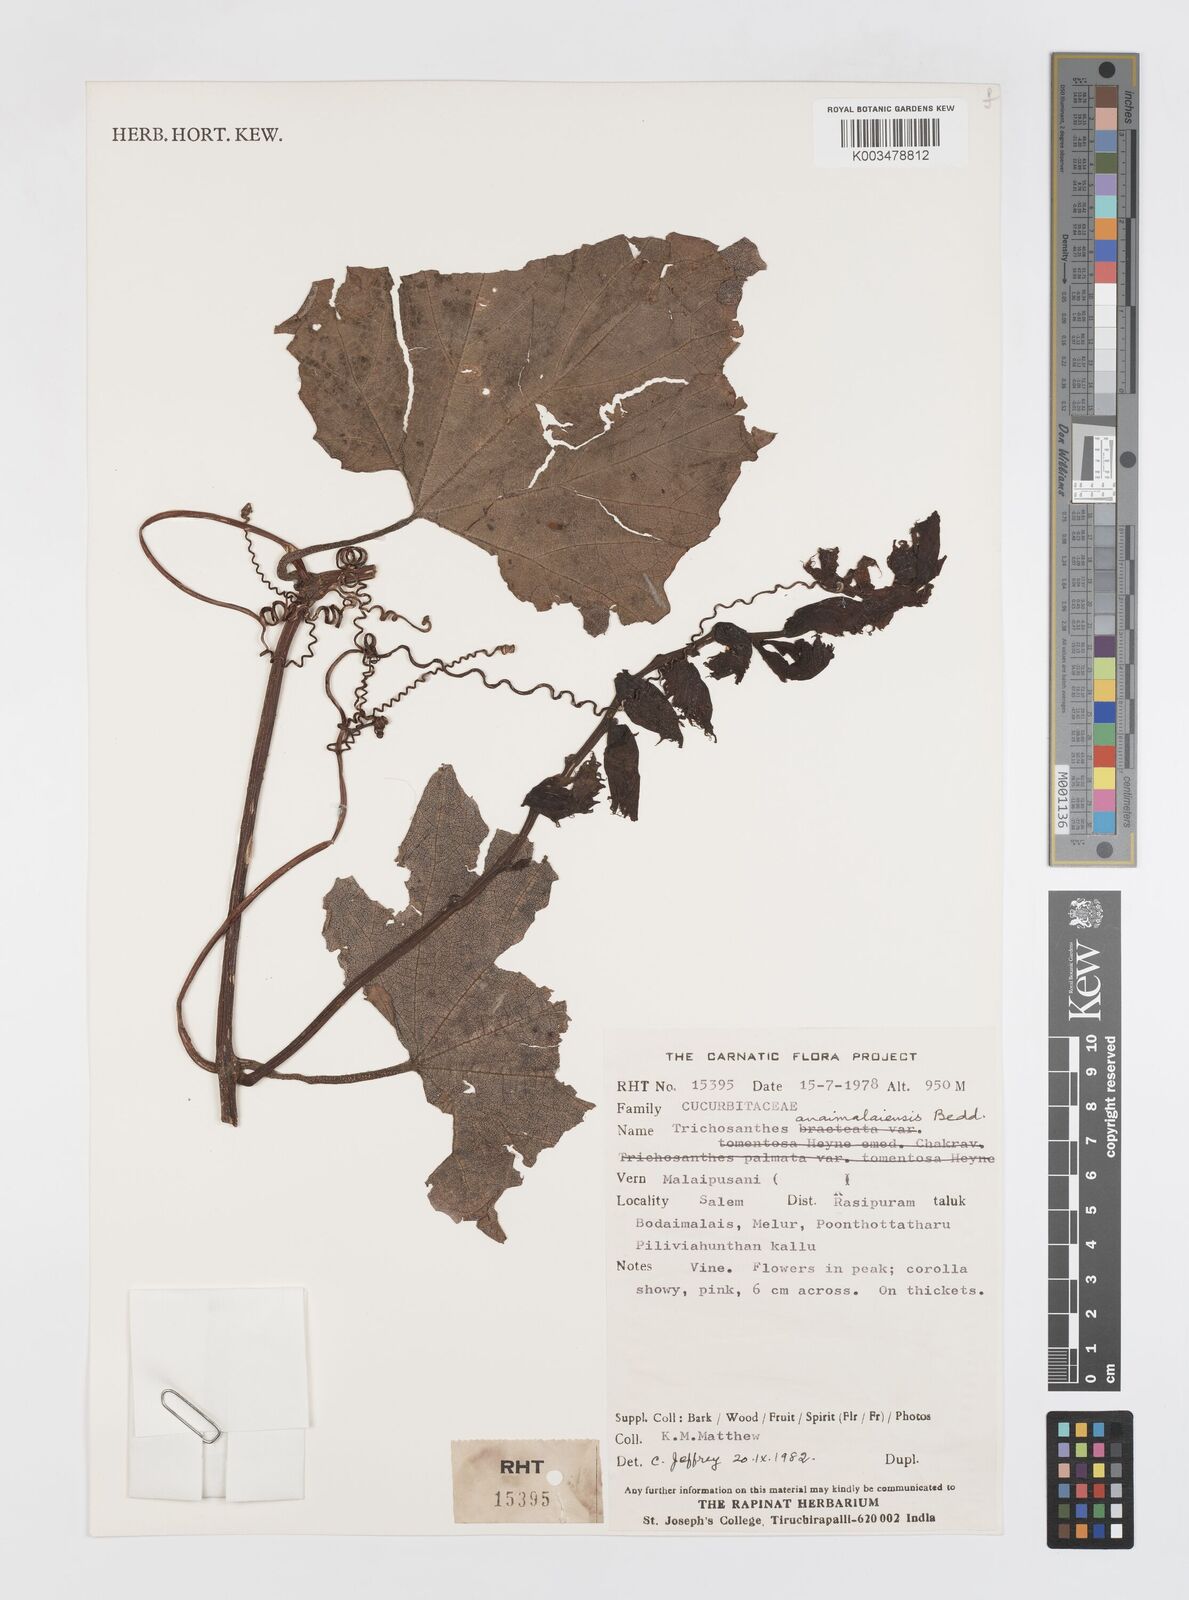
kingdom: Plantae
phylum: Tracheophyta
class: Magnoliopsida
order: Cucurbitales
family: Cucurbitaceae
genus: Trichosanthes
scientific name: Trichosanthes anaimalaiensis
